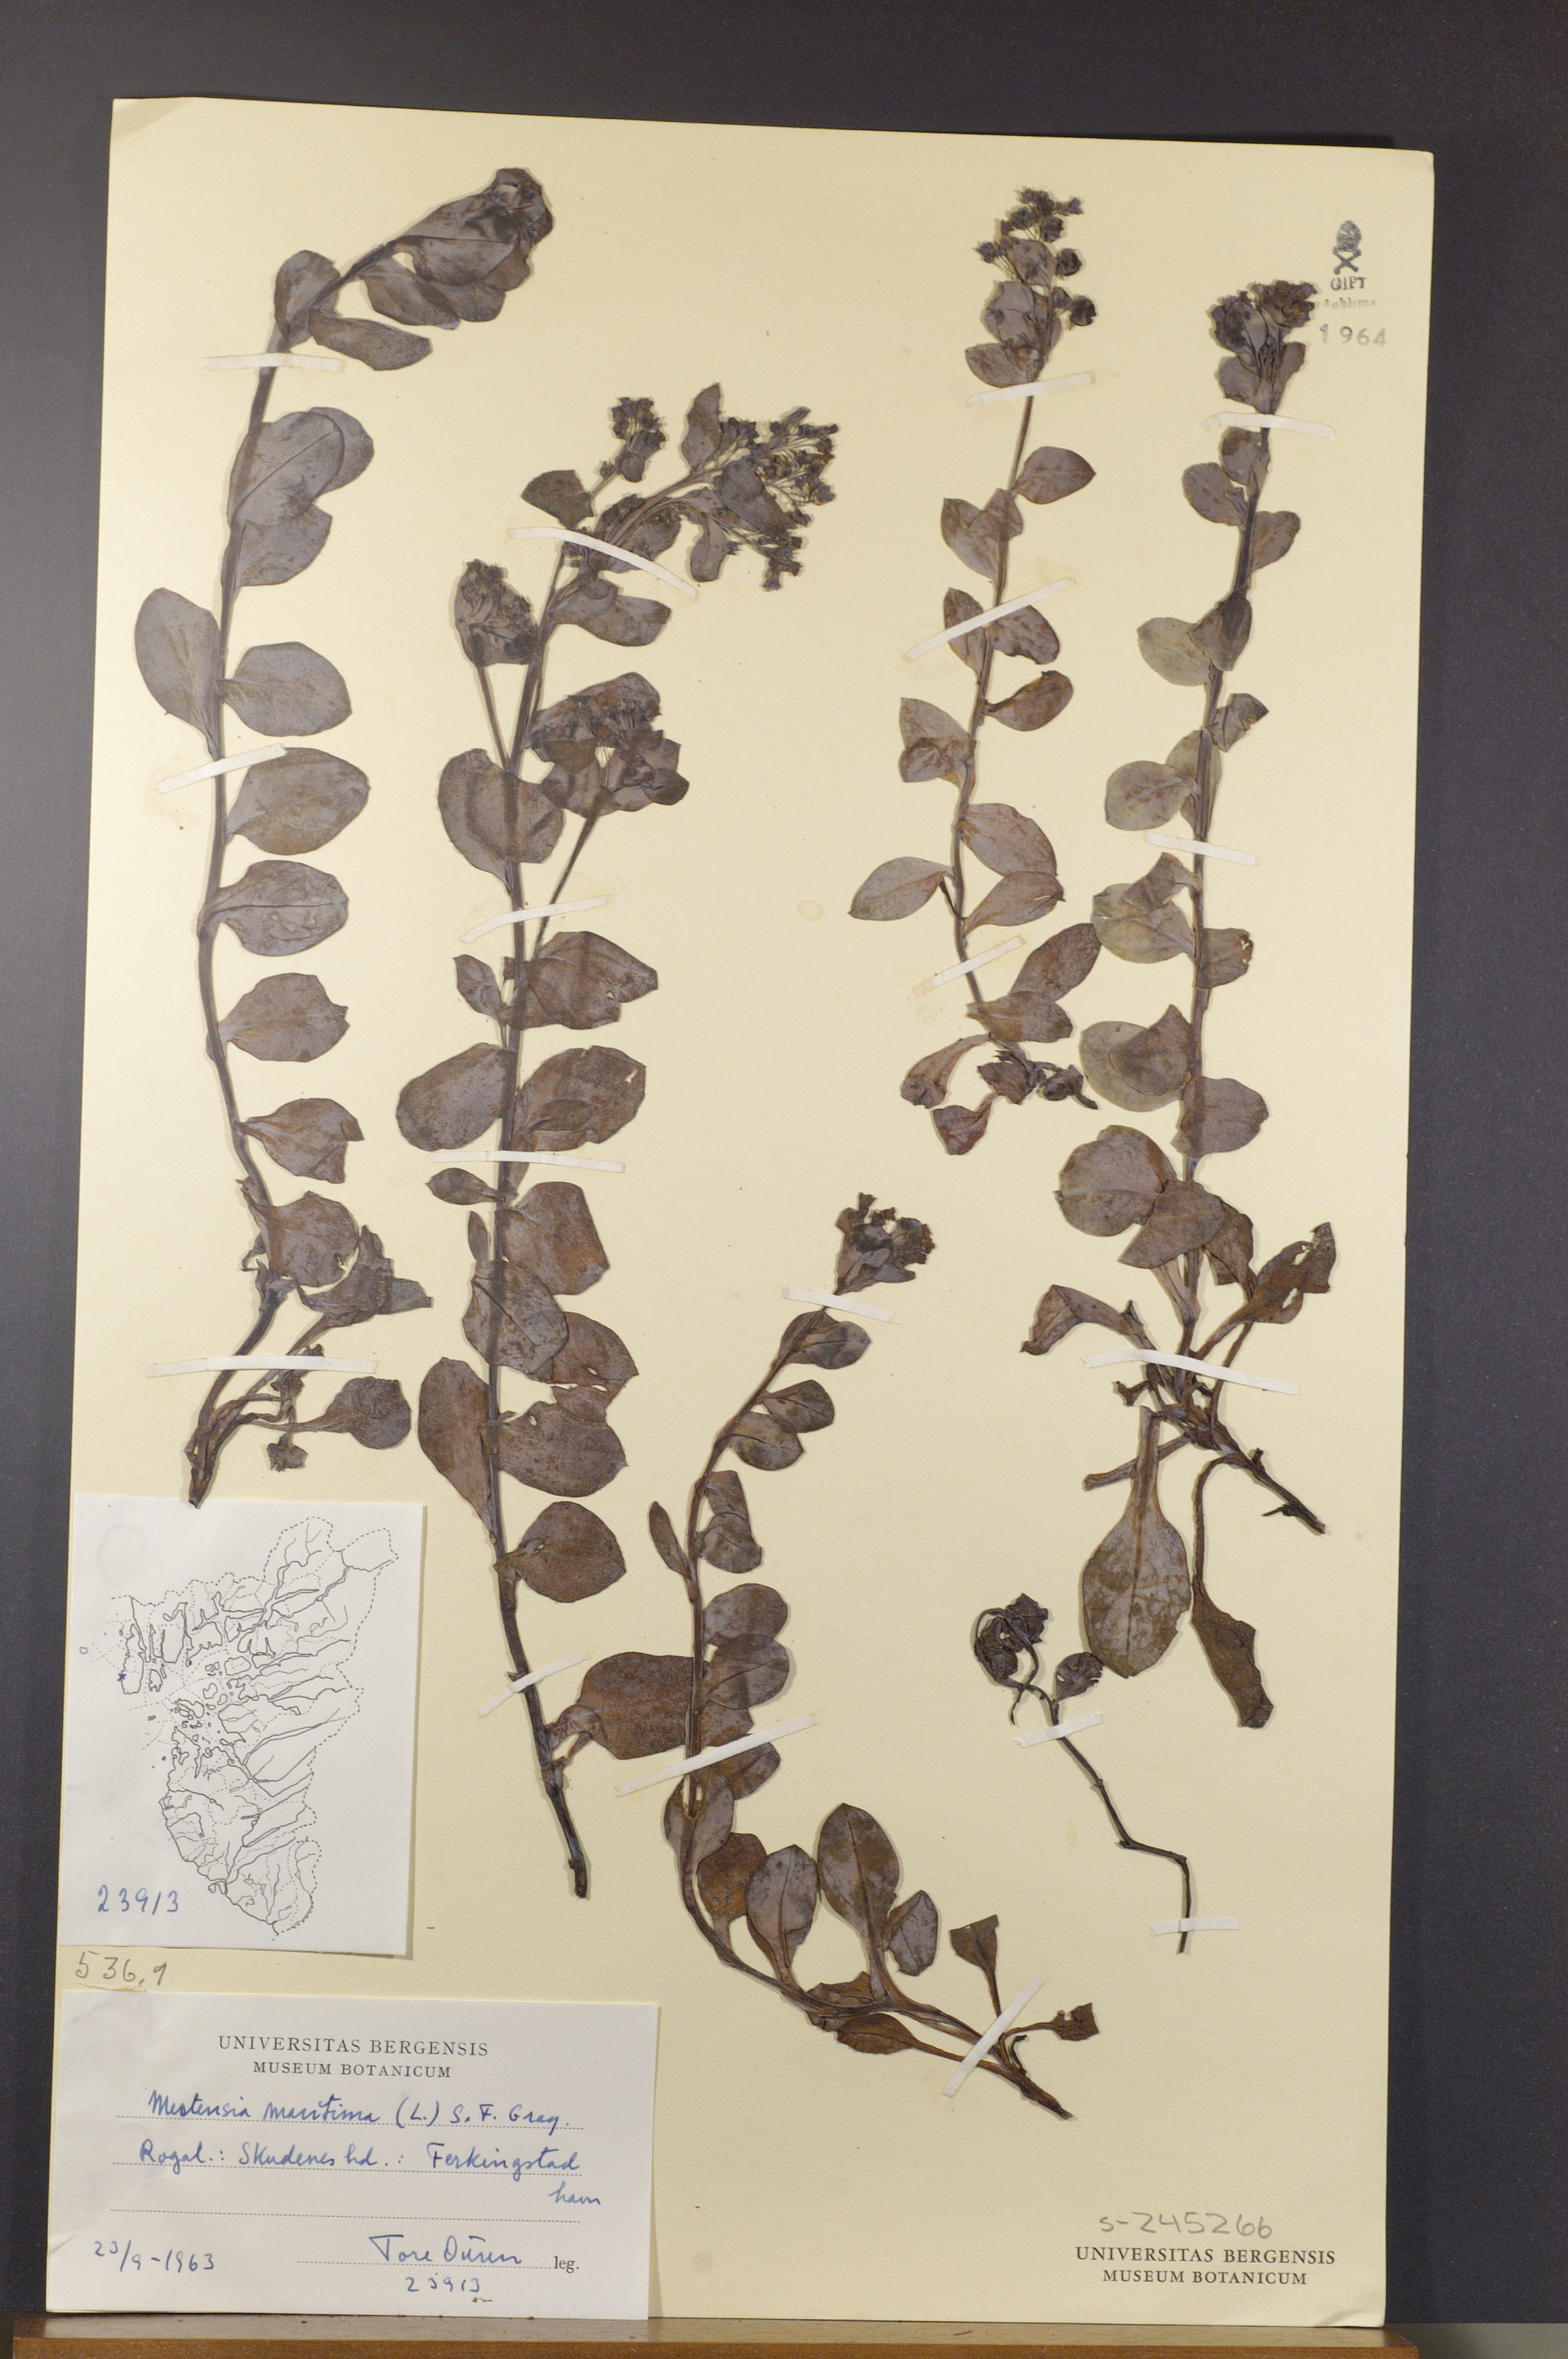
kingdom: Plantae
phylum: Tracheophyta
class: Magnoliopsida
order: Boraginales
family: Boraginaceae
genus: Mertensia
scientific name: Mertensia maritima
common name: Oysterplant
